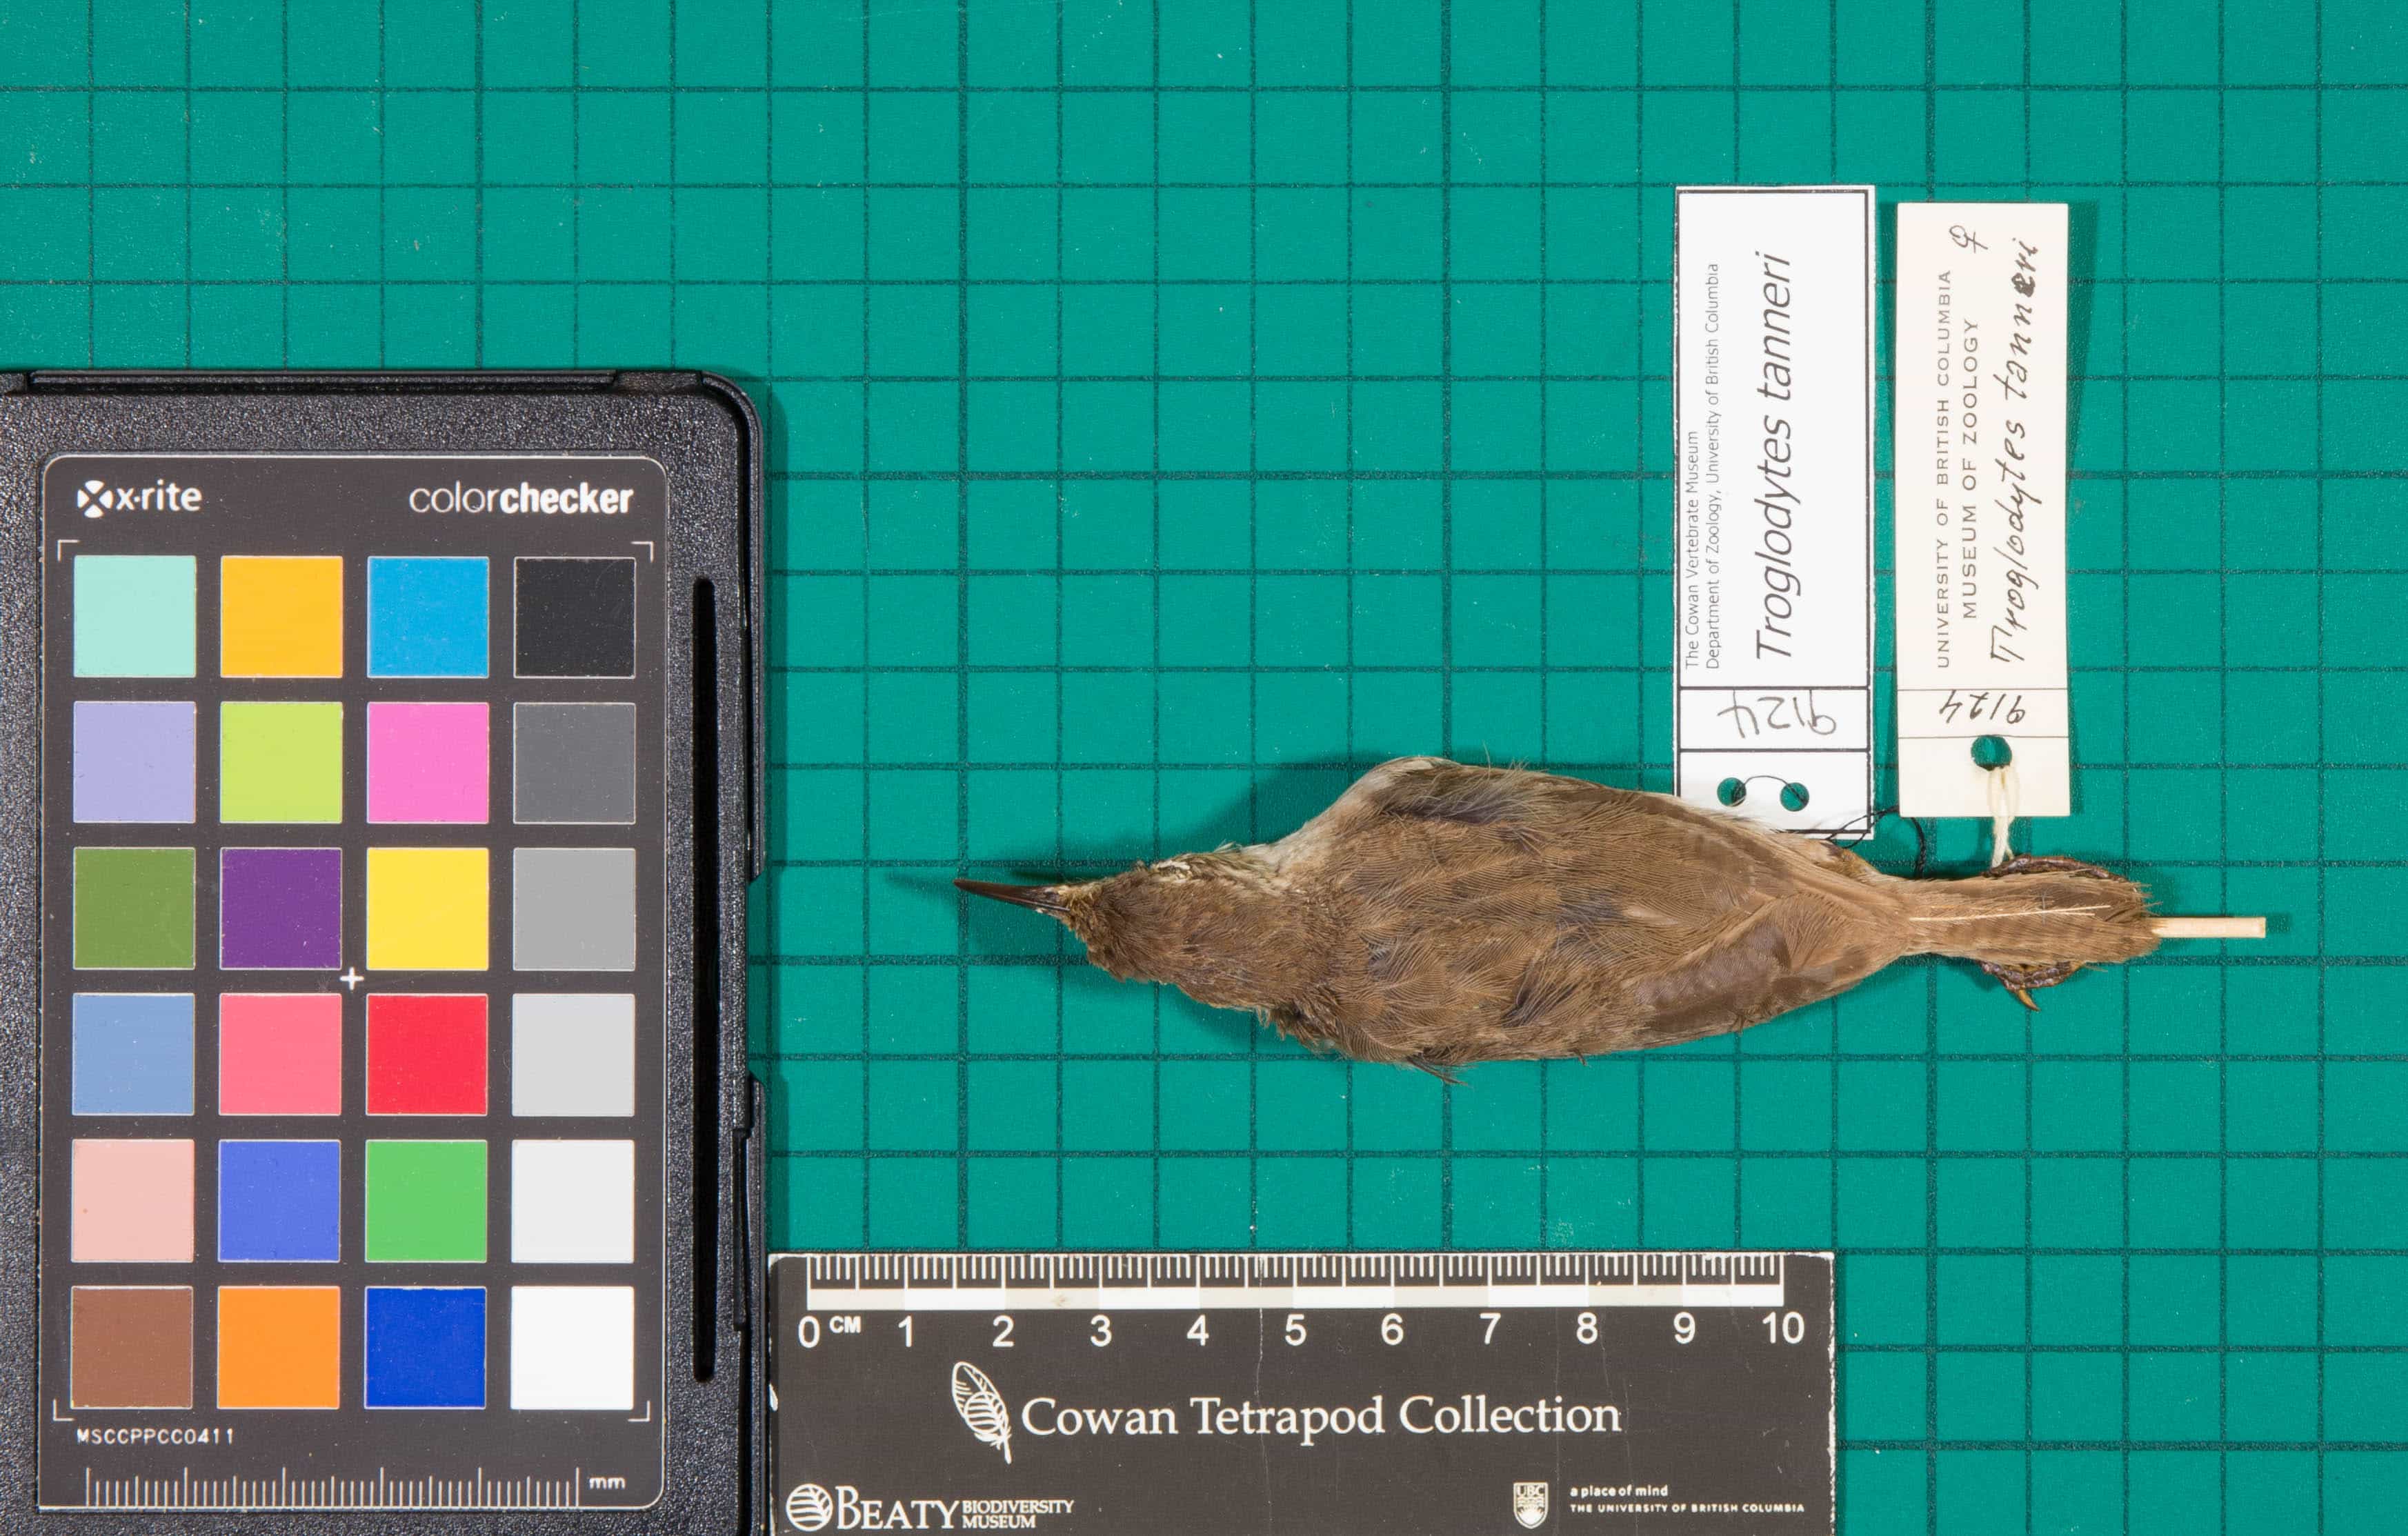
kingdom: Animalia
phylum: Chordata
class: Aves
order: Passeriformes
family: Troglodytidae
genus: Troglodytes
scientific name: Troglodytes tanneri
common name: Clarion Wren
